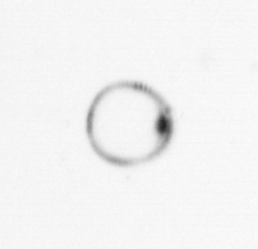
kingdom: Chromista
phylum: Myzozoa
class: Dinophyceae
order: Noctilucales
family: Noctilucaceae
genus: Noctiluca
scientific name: Noctiluca scintillans
